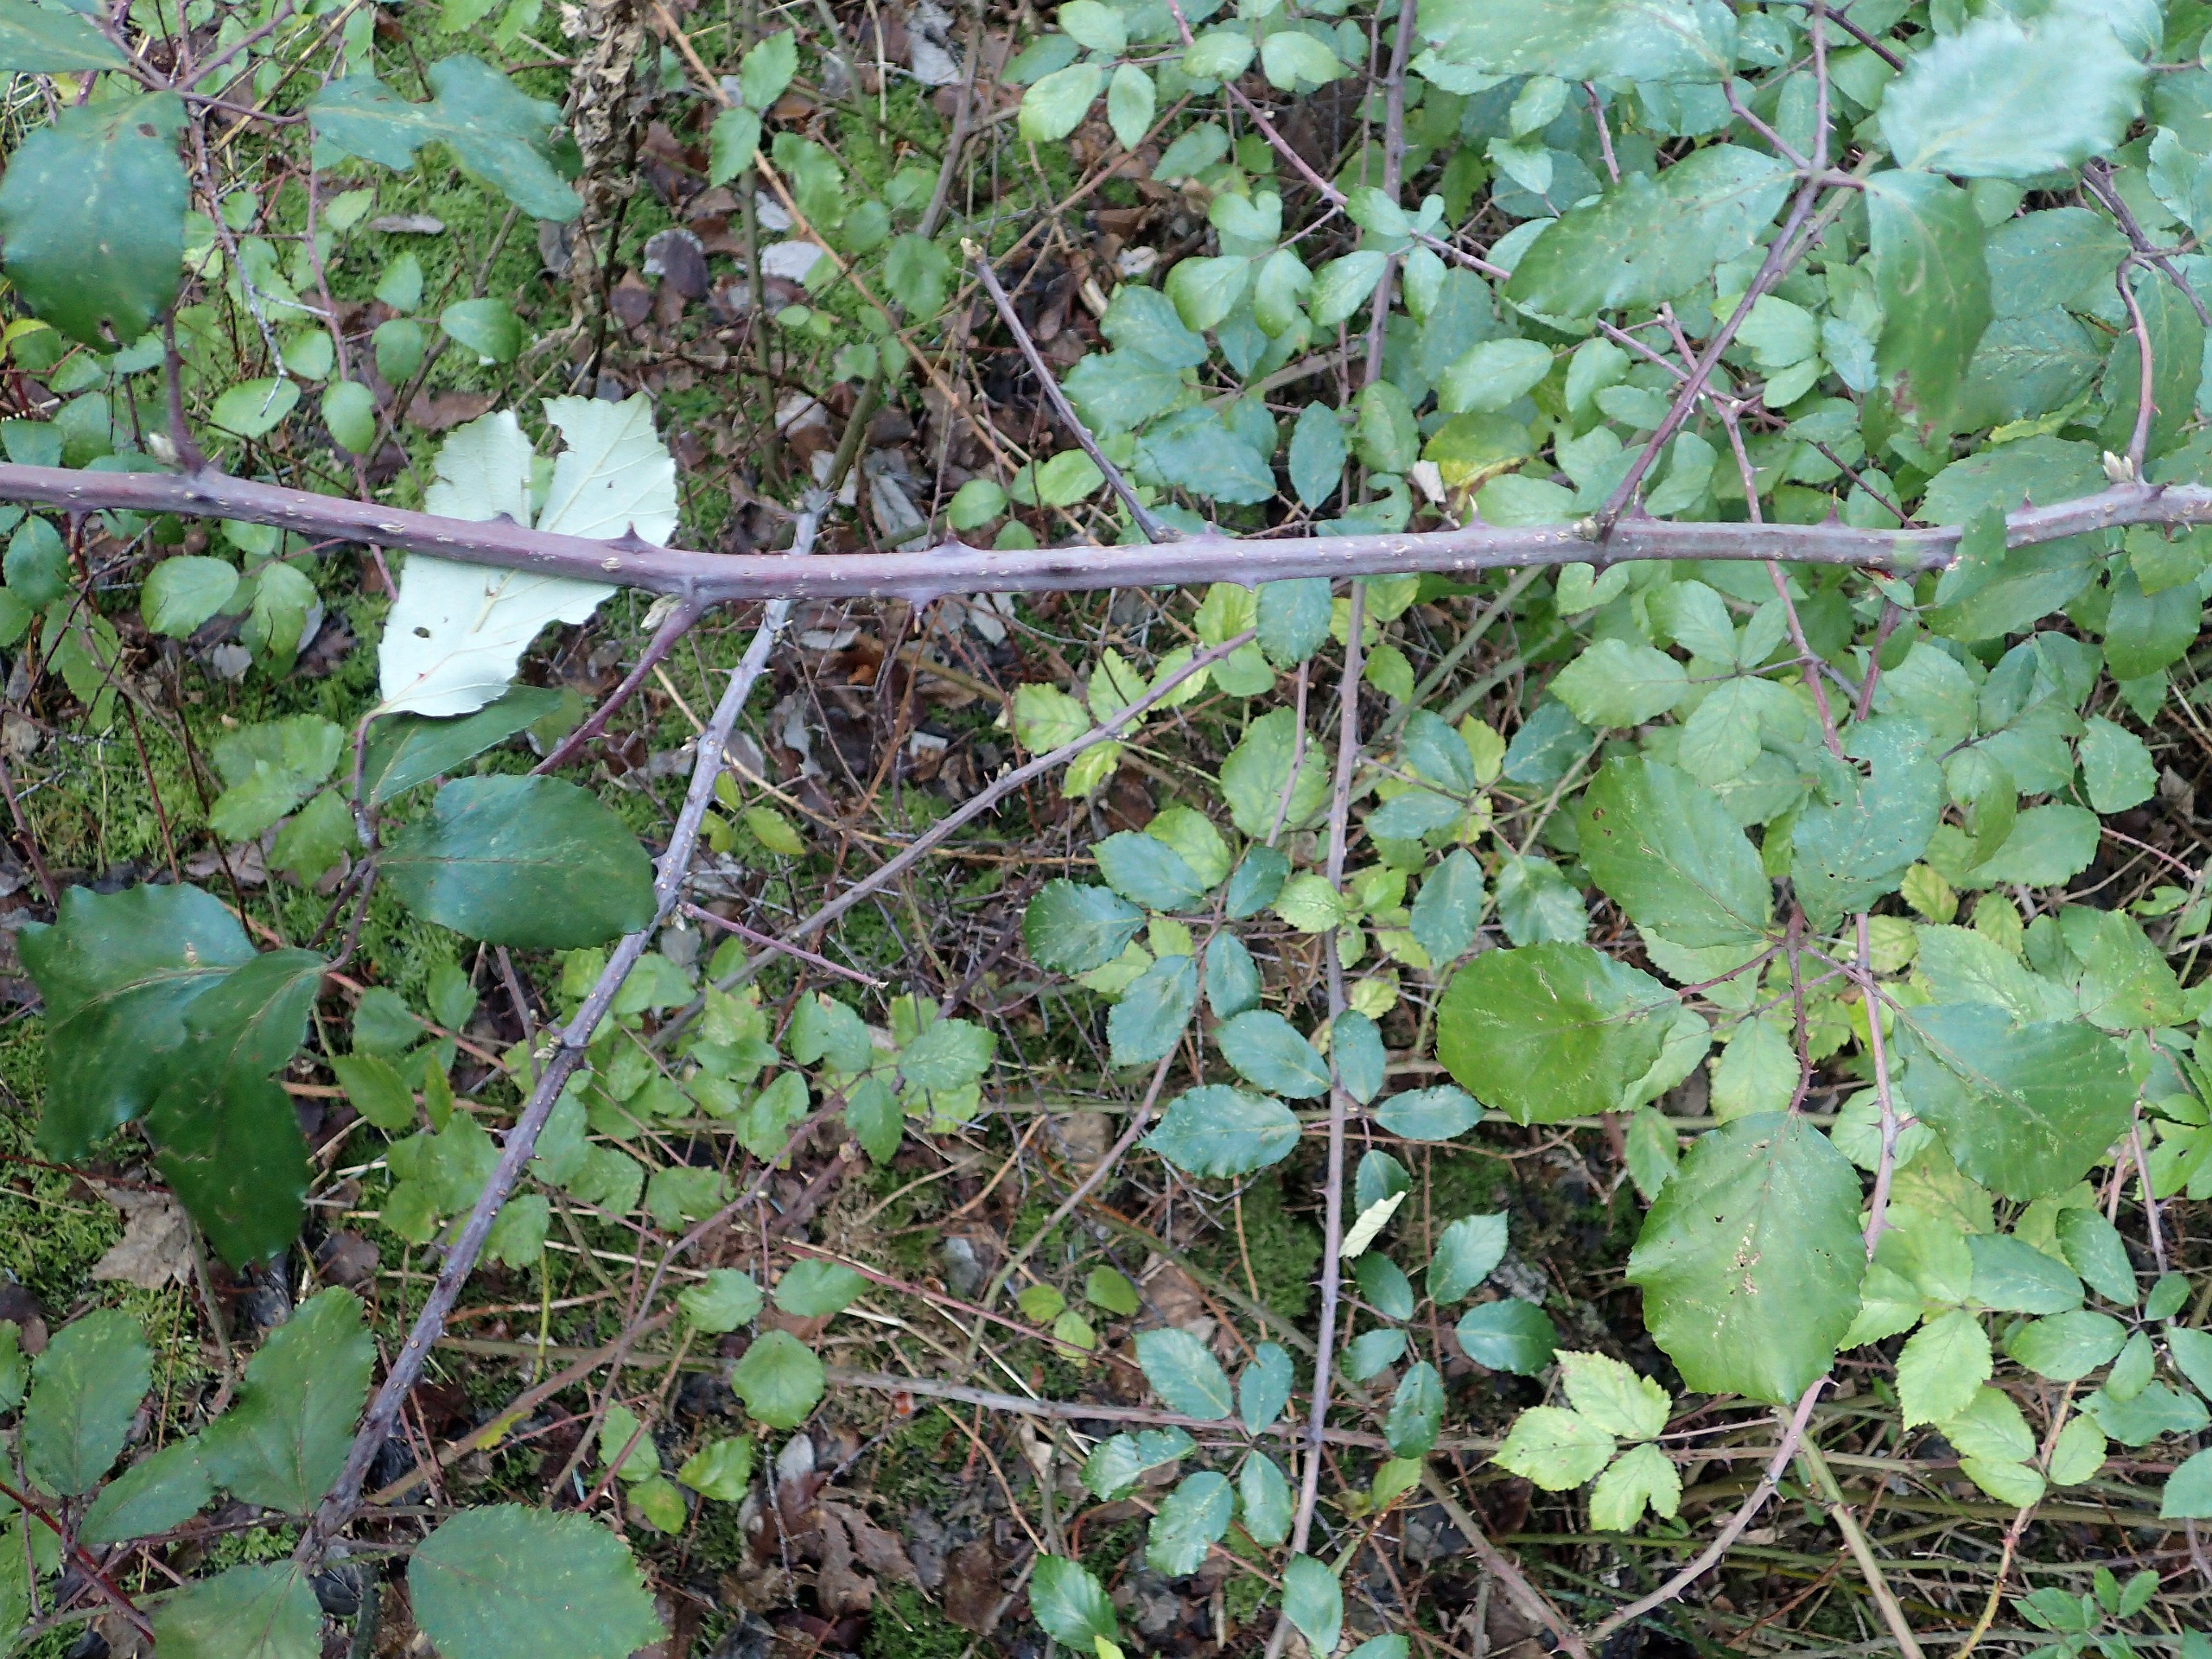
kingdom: Plantae
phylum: Tracheophyta
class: Magnoliopsida
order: Rosales
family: Rosaceae
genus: Rubus
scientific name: Rubus ulmifolius
